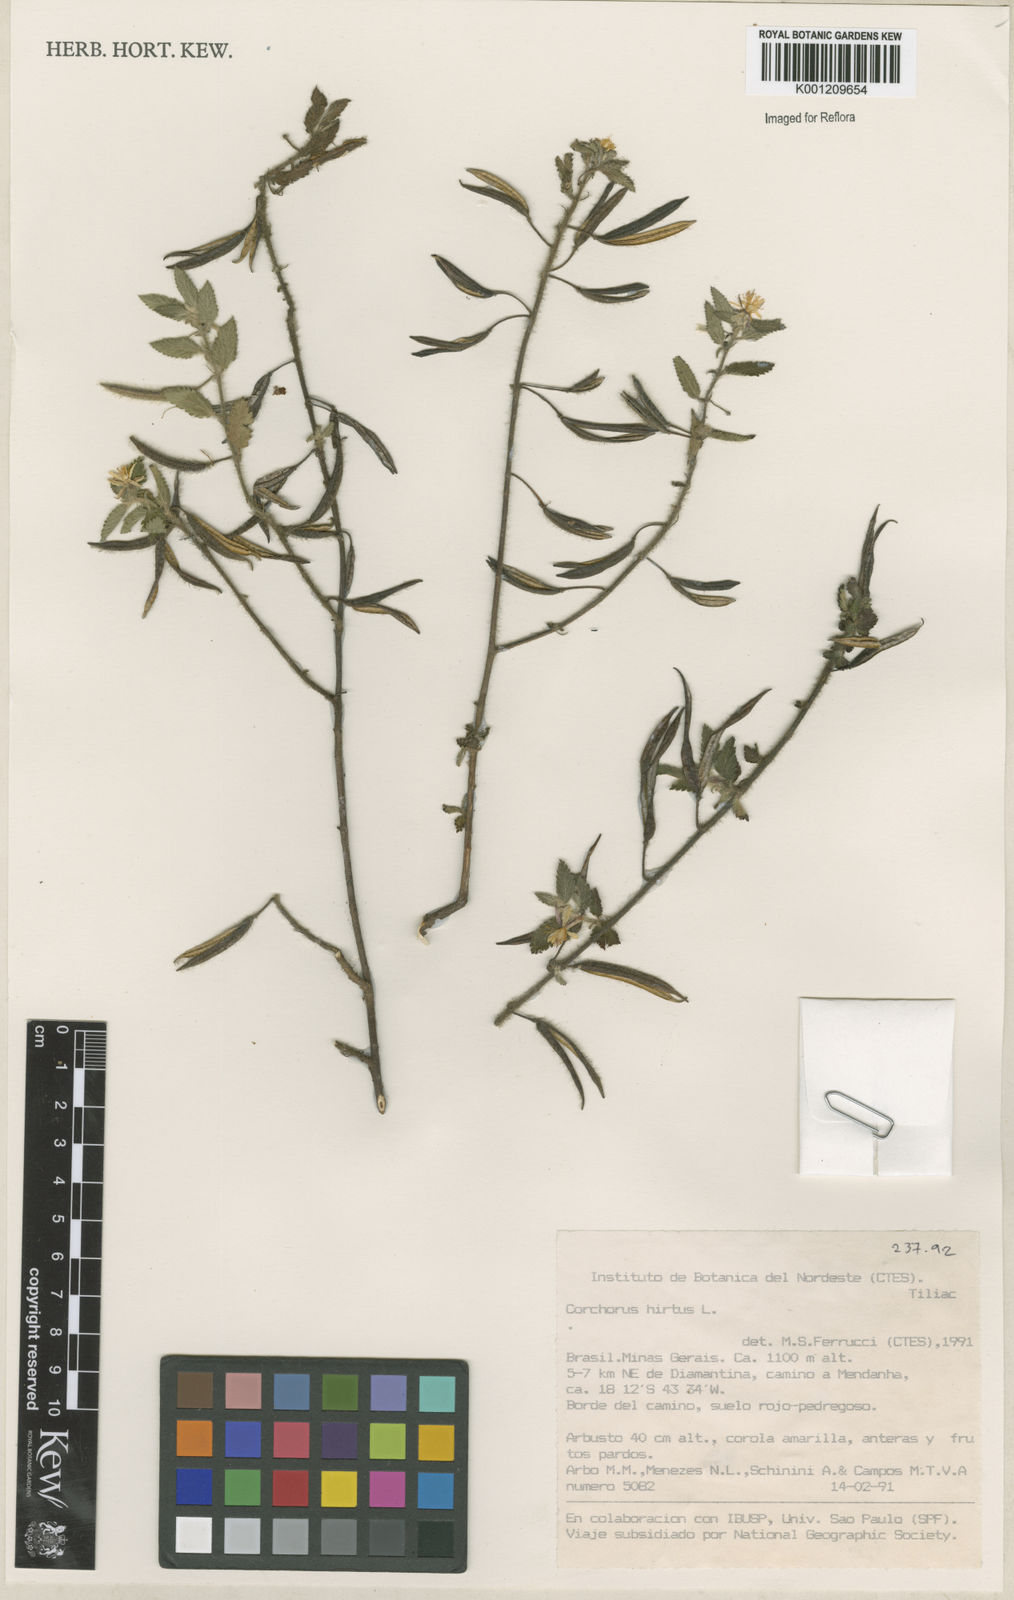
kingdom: Plantae
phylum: Tracheophyta
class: Magnoliopsida
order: Malvales
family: Malvaceae
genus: Corchorus
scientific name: Corchorus hirtus
